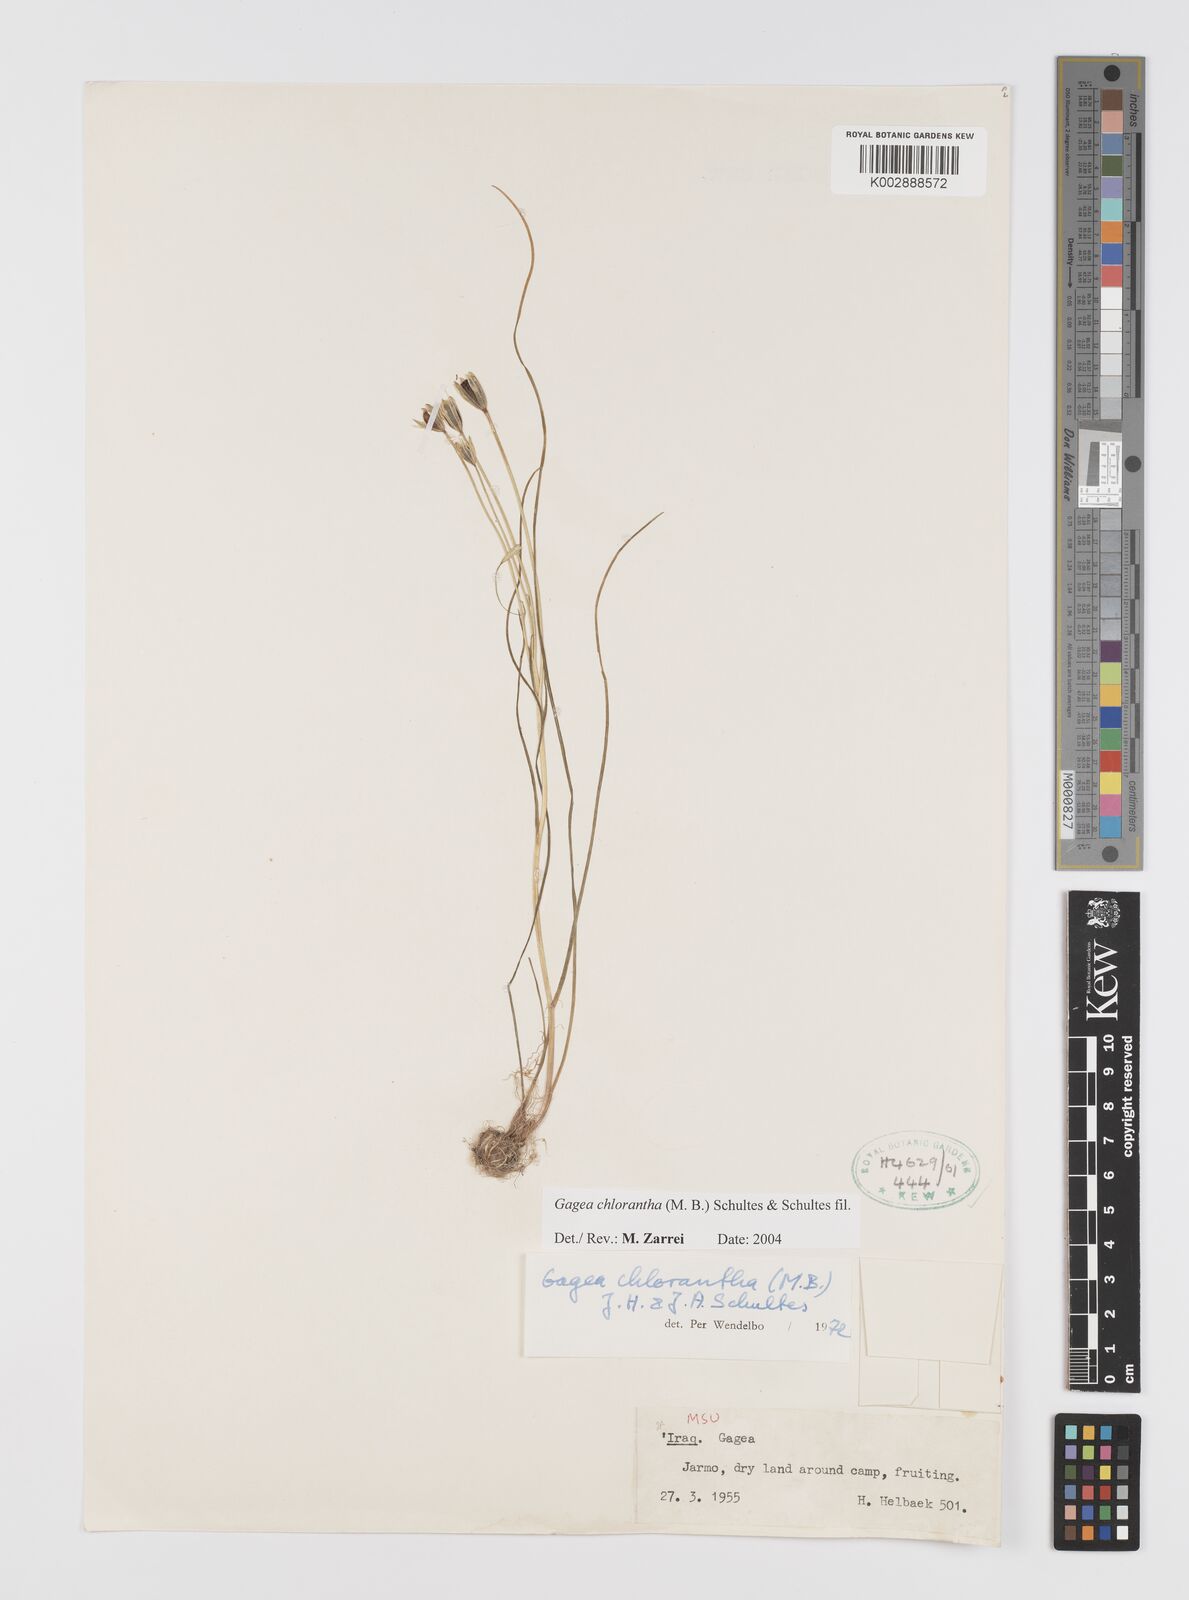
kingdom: Plantae
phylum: Tracheophyta
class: Liliopsida
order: Liliales
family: Liliaceae
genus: Gagea
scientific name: Gagea chlorantha
